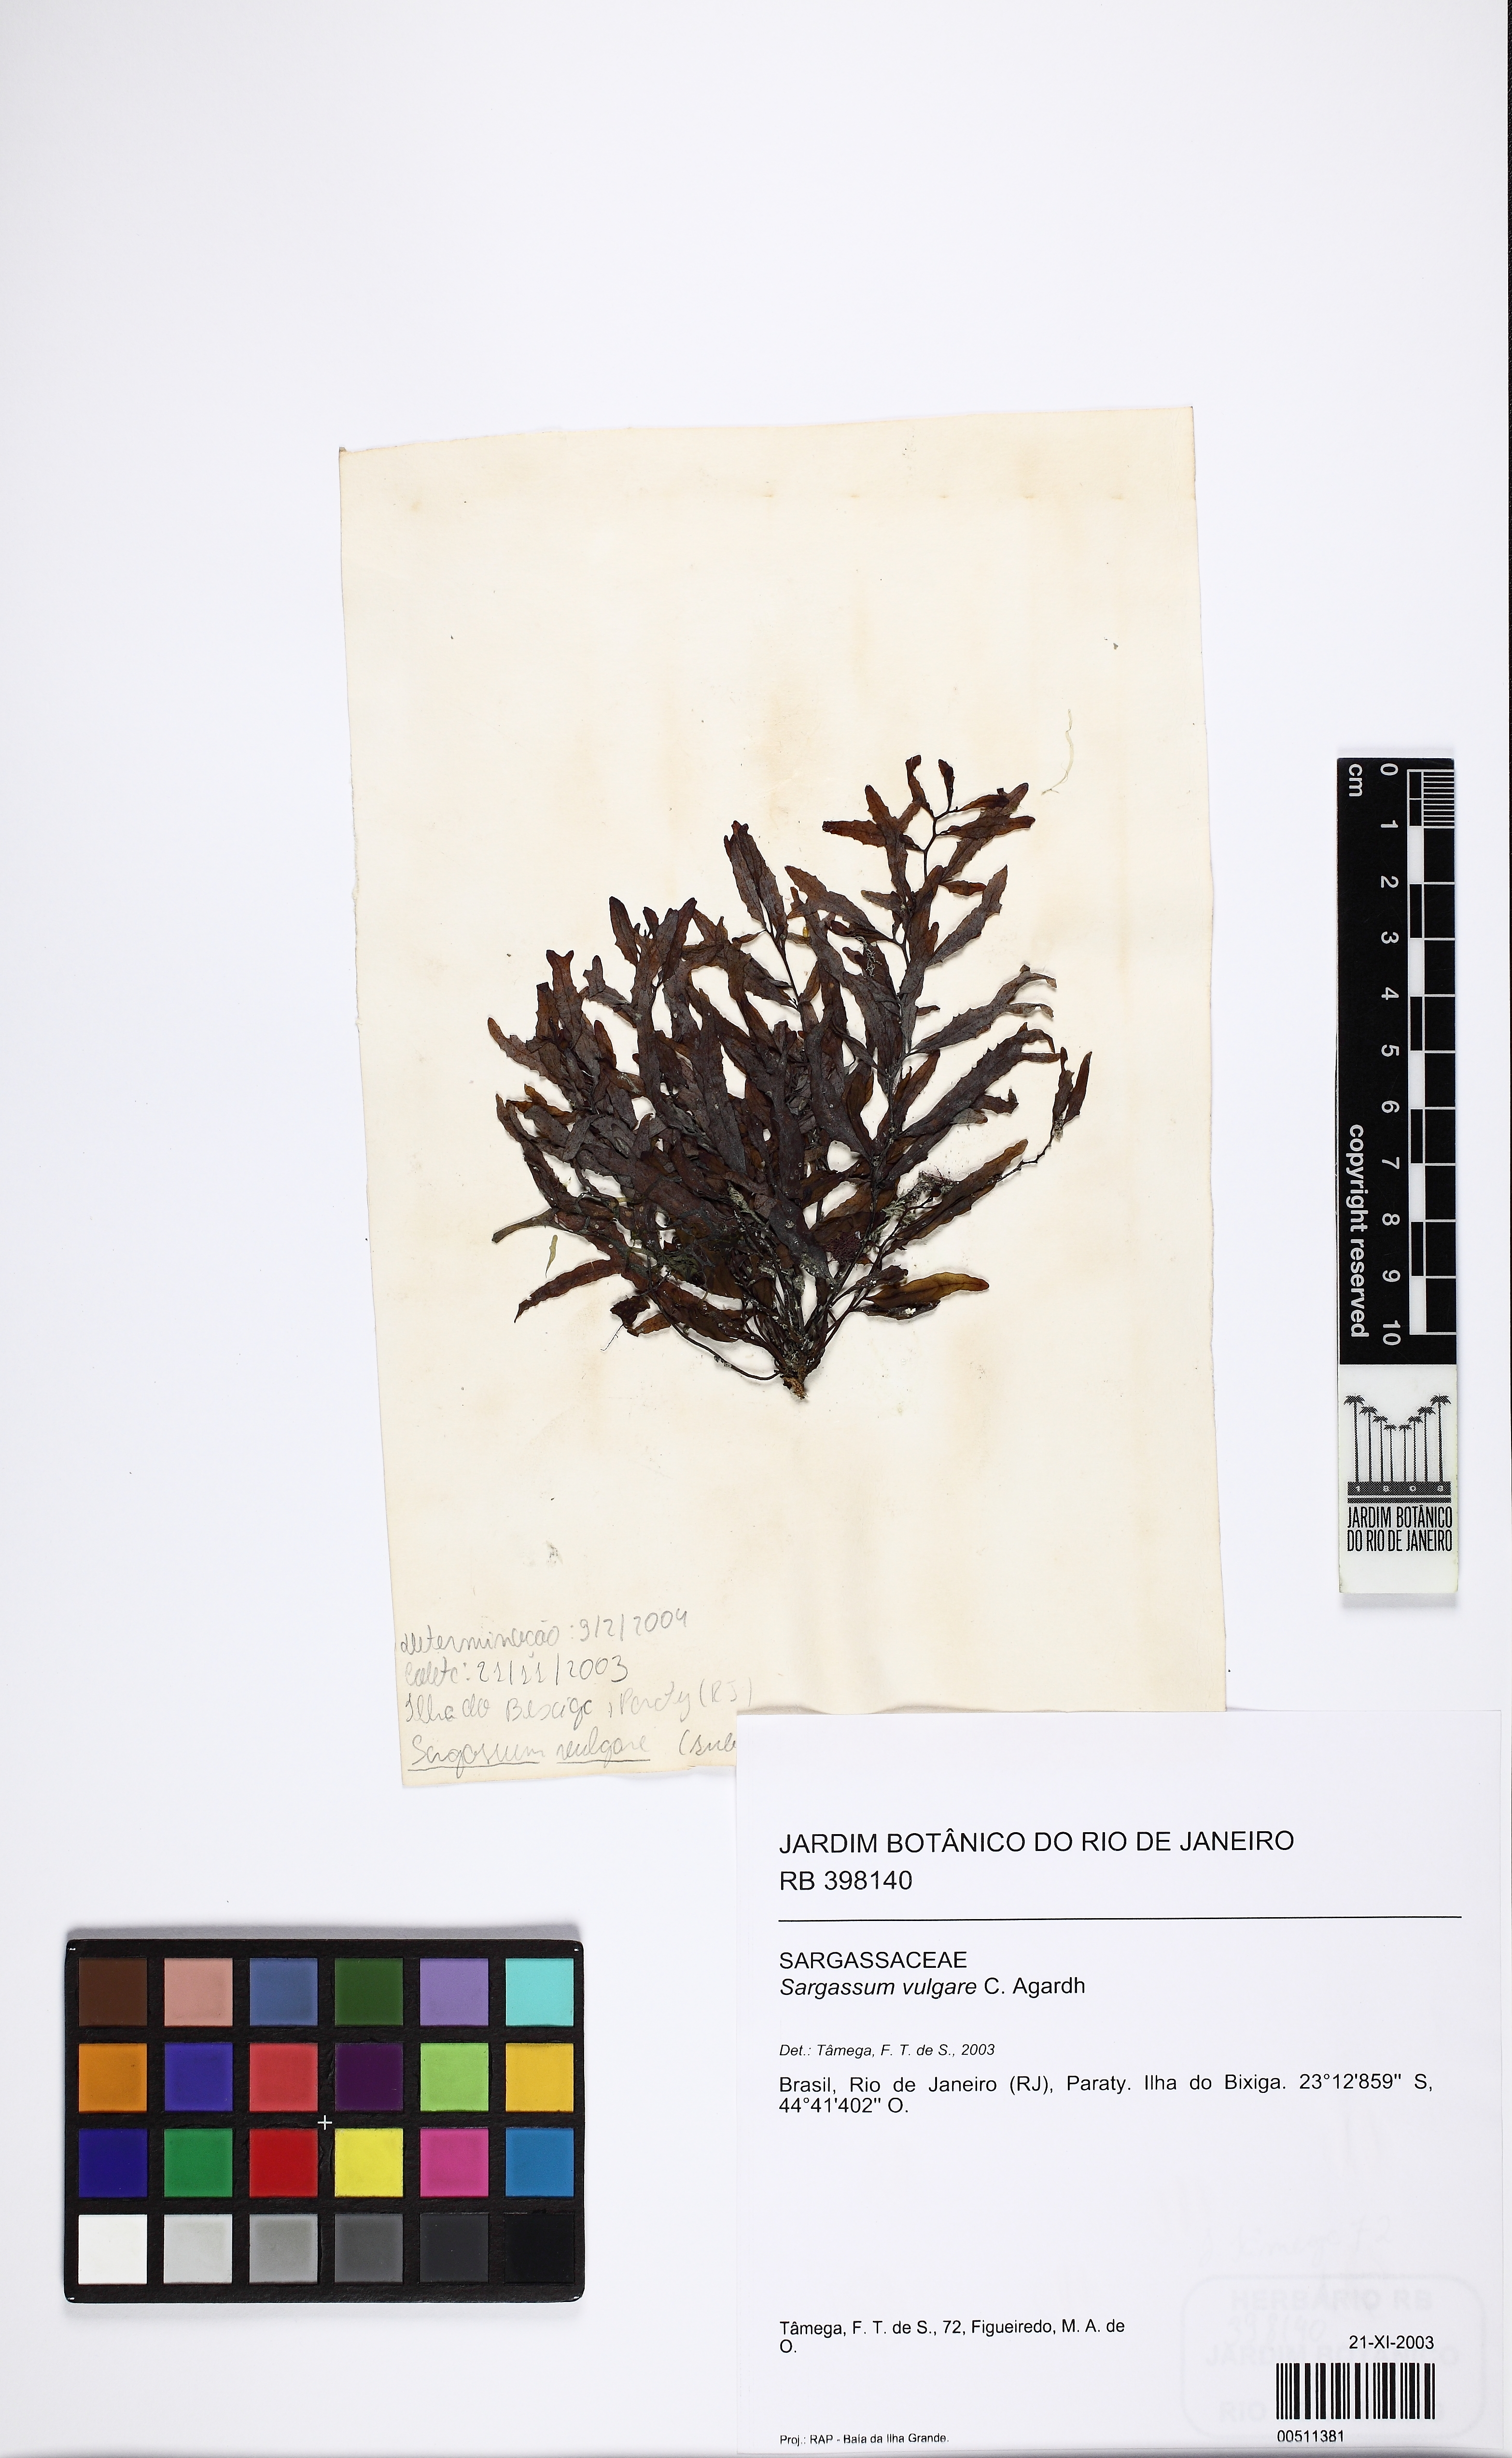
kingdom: Chromista
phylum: Ochrophyta
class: Phaeophyceae
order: Fucales
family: Sargassaceae
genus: Sargassum
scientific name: Sargassum vulgare
